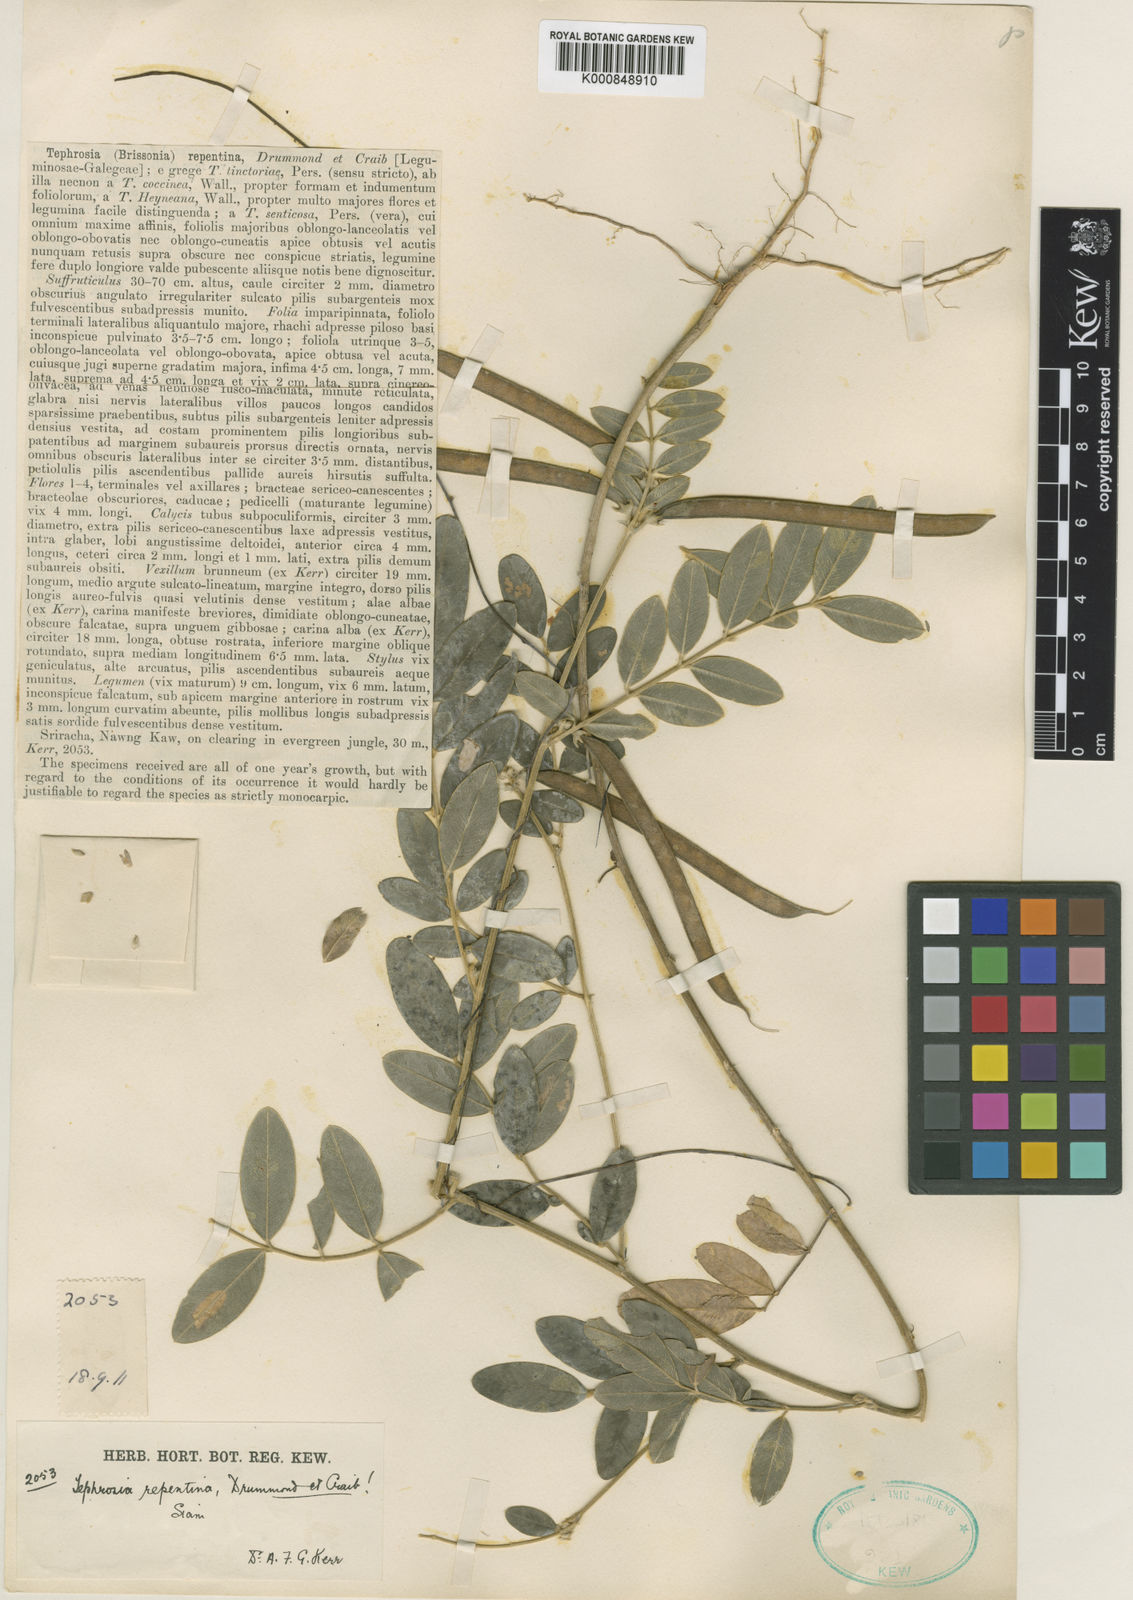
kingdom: Plantae
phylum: Tracheophyta
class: Magnoliopsida
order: Fabales
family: Fabaceae
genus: Tephrosia
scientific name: Tephrosia vestita
